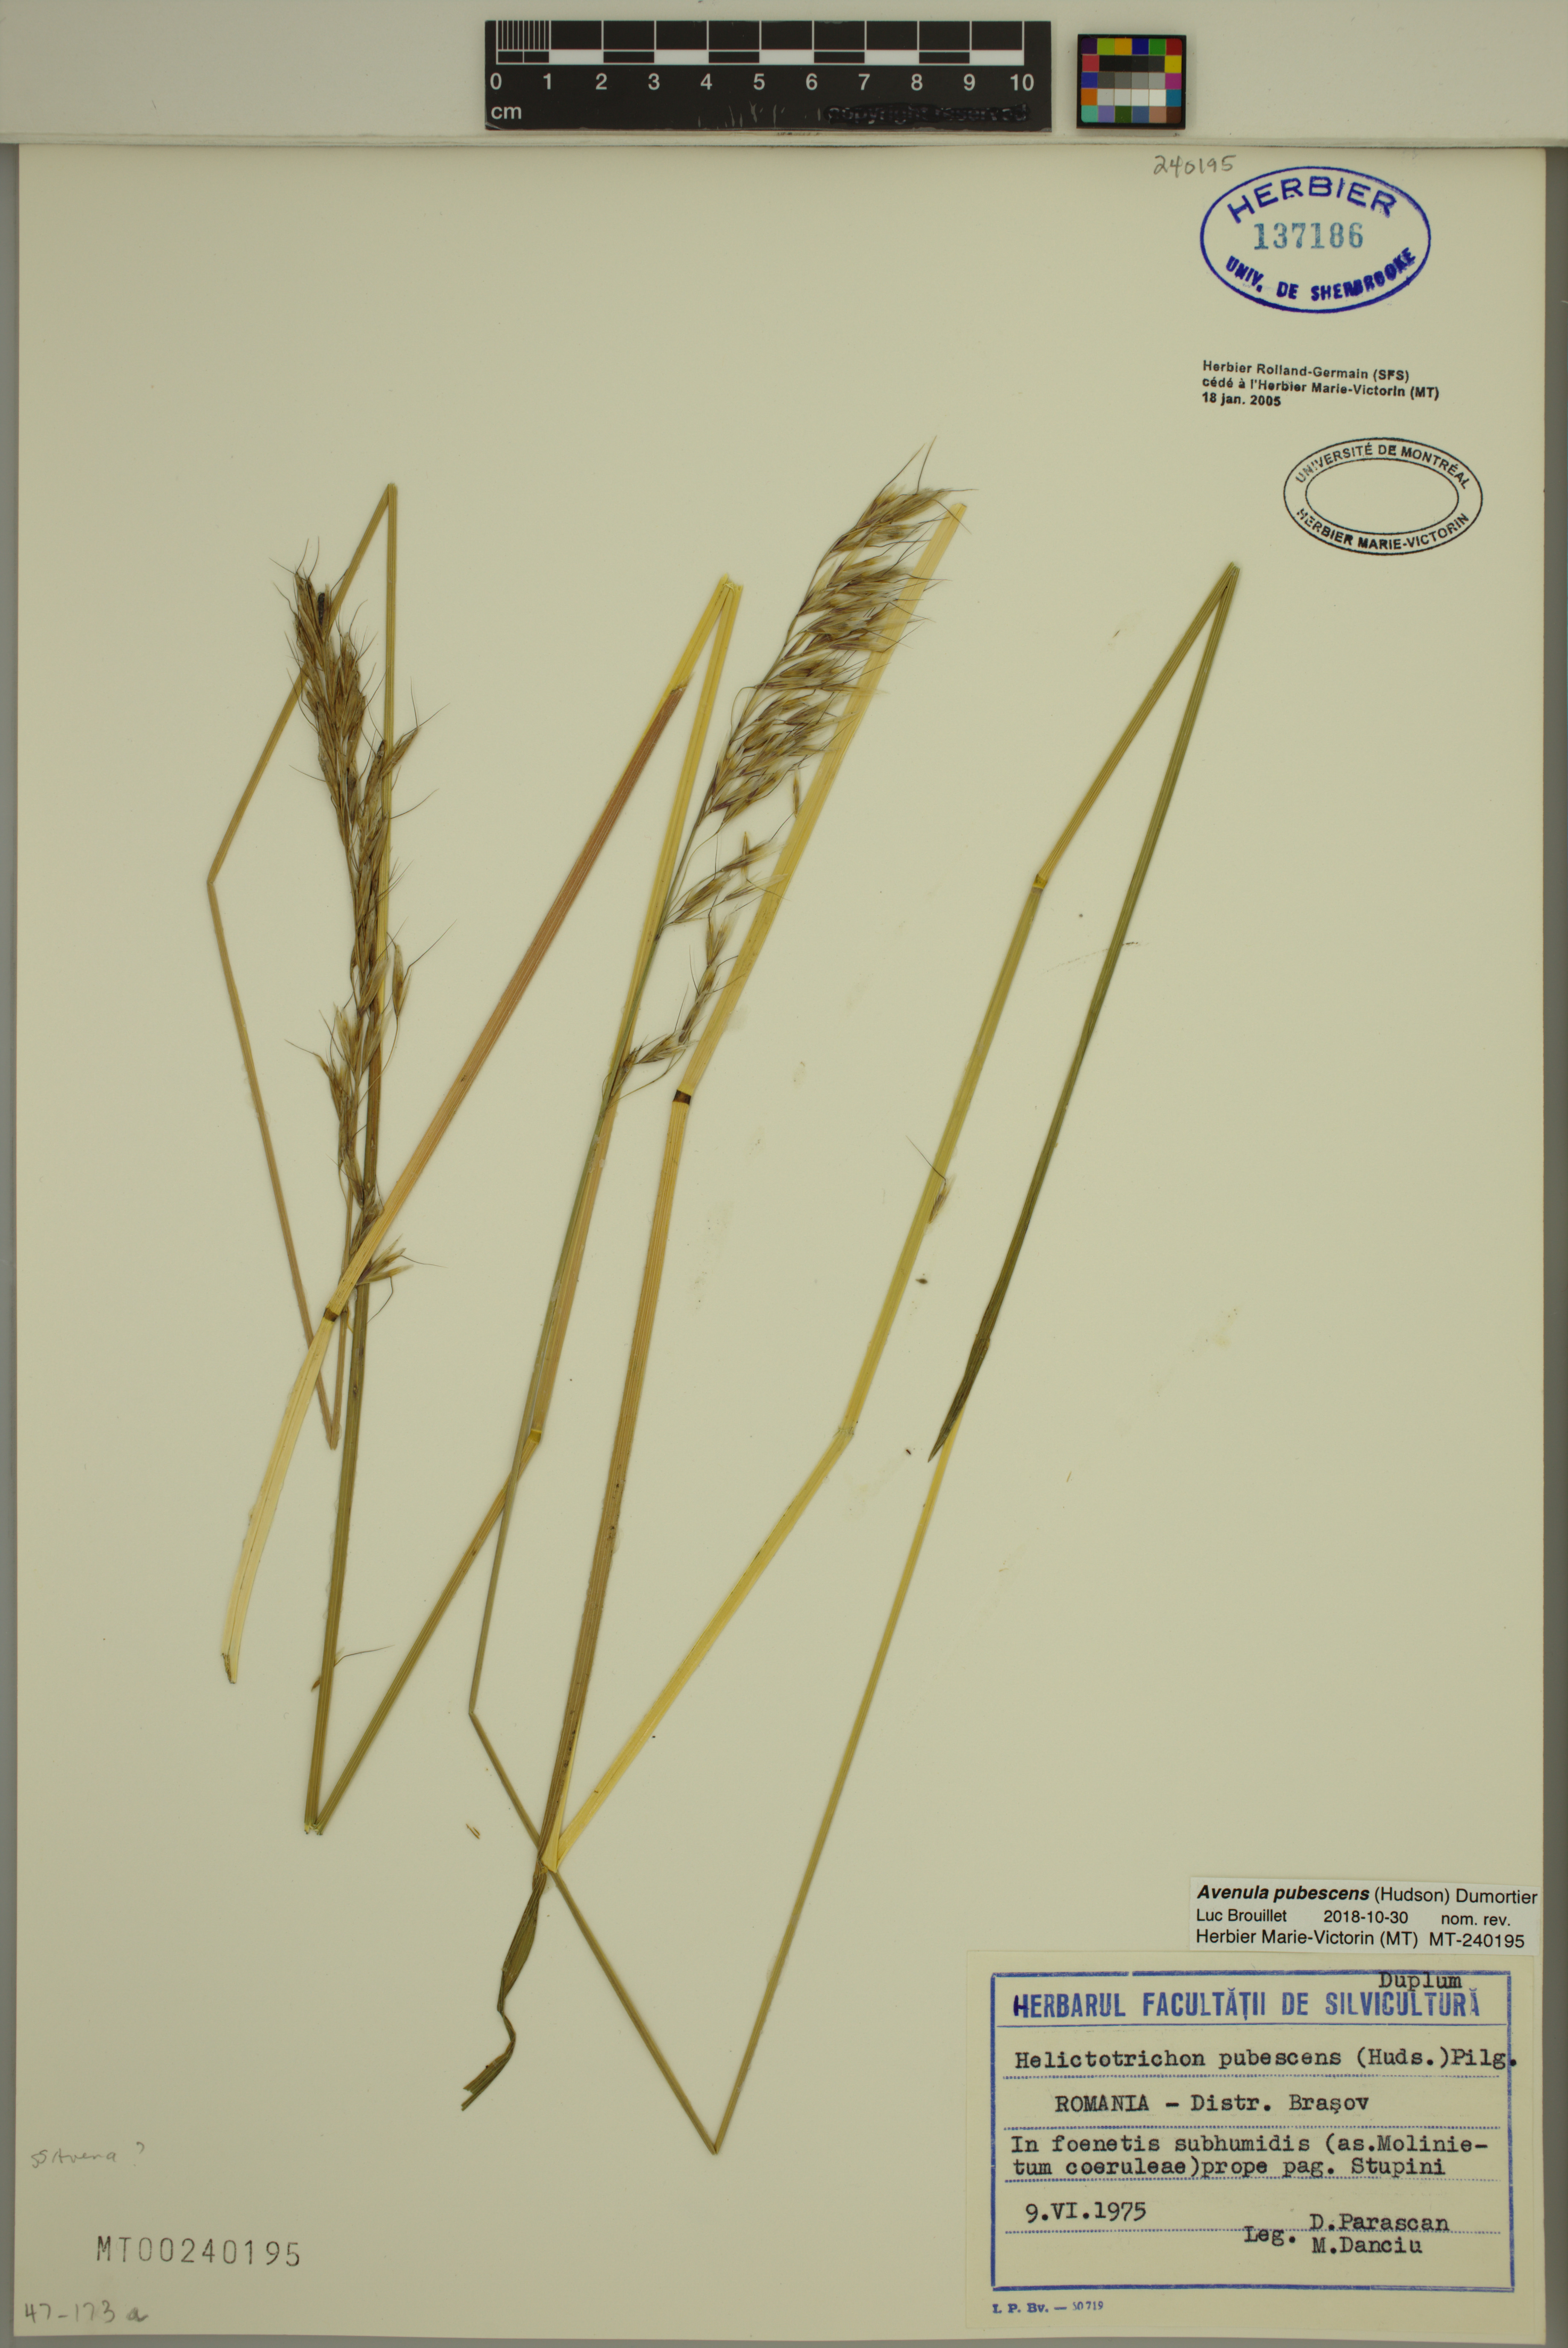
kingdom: Plantae
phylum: Tracheophyta
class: Liliopsida
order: Poales
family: Poaceae
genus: Avenula
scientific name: Avenula pubescens
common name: Downy alpine oatgrass
